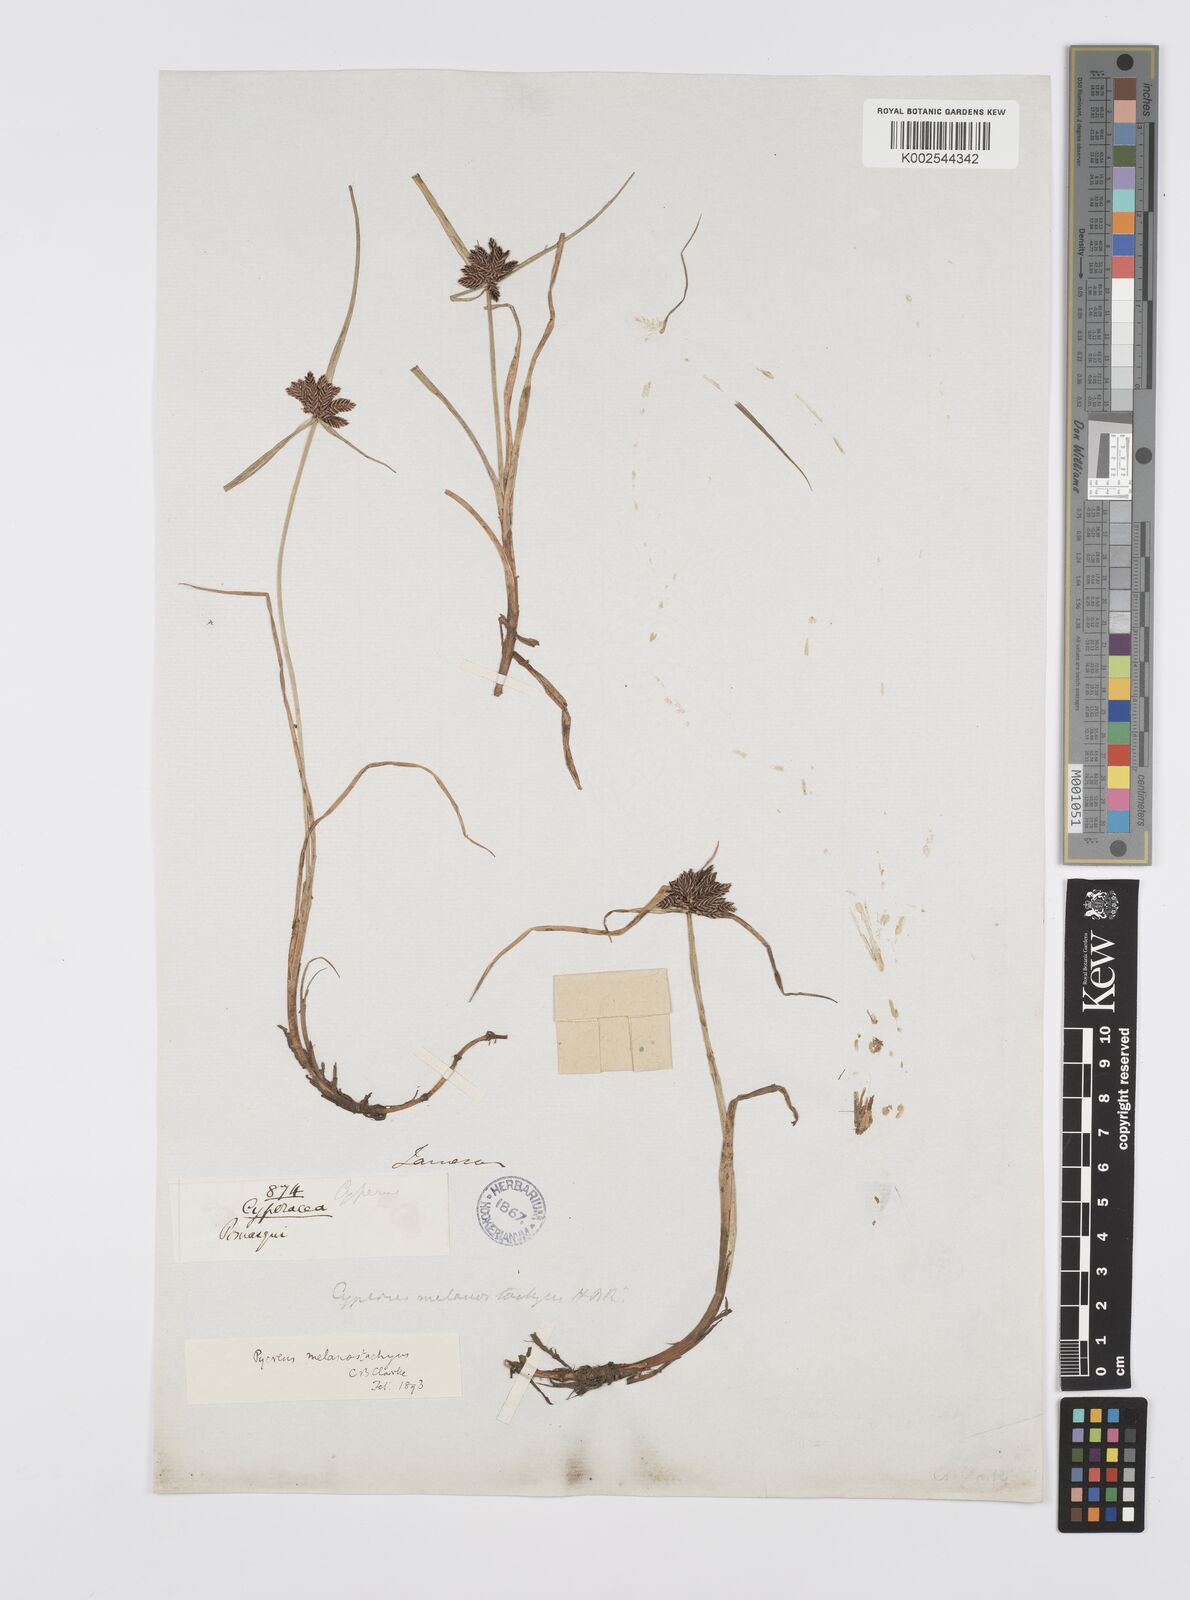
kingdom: Plantae
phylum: Tracheophyta
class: Liliopsida
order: Poales
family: Cyperaceae
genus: Cyperus
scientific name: Cyperus melanostachyus
